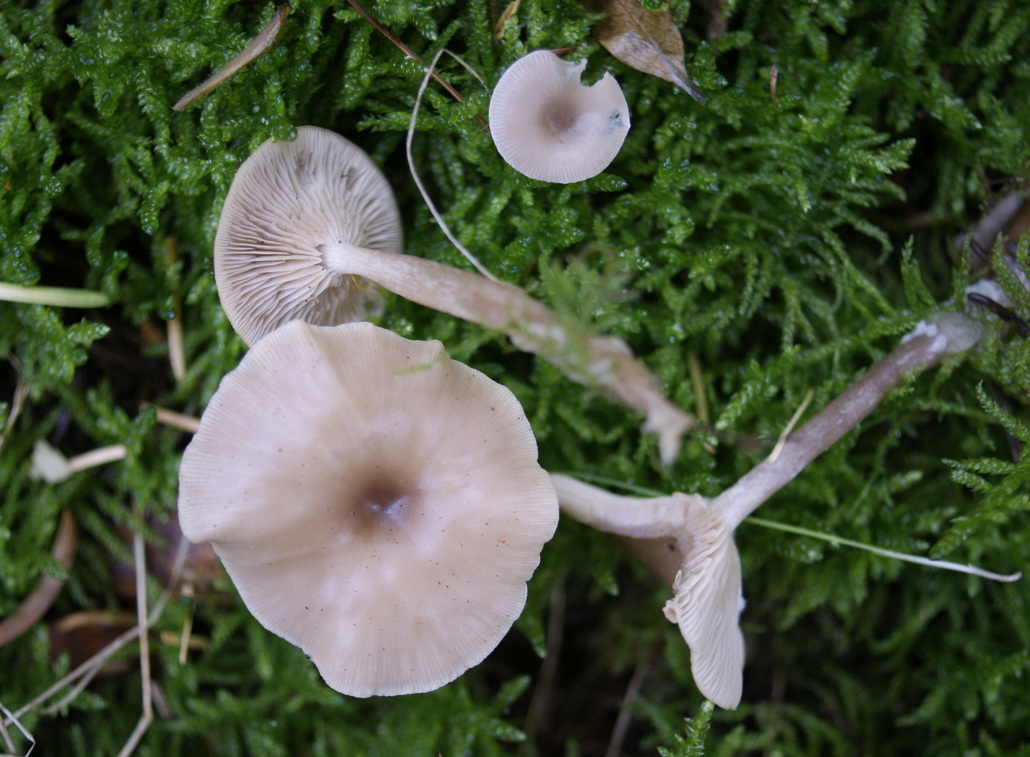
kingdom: Fungi
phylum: Basidiomycota
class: Agaricomycetes
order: Agaricales
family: Tricholomataceae
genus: Clitocybe
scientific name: Clitocybe vibecina
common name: randstribet tragthat
